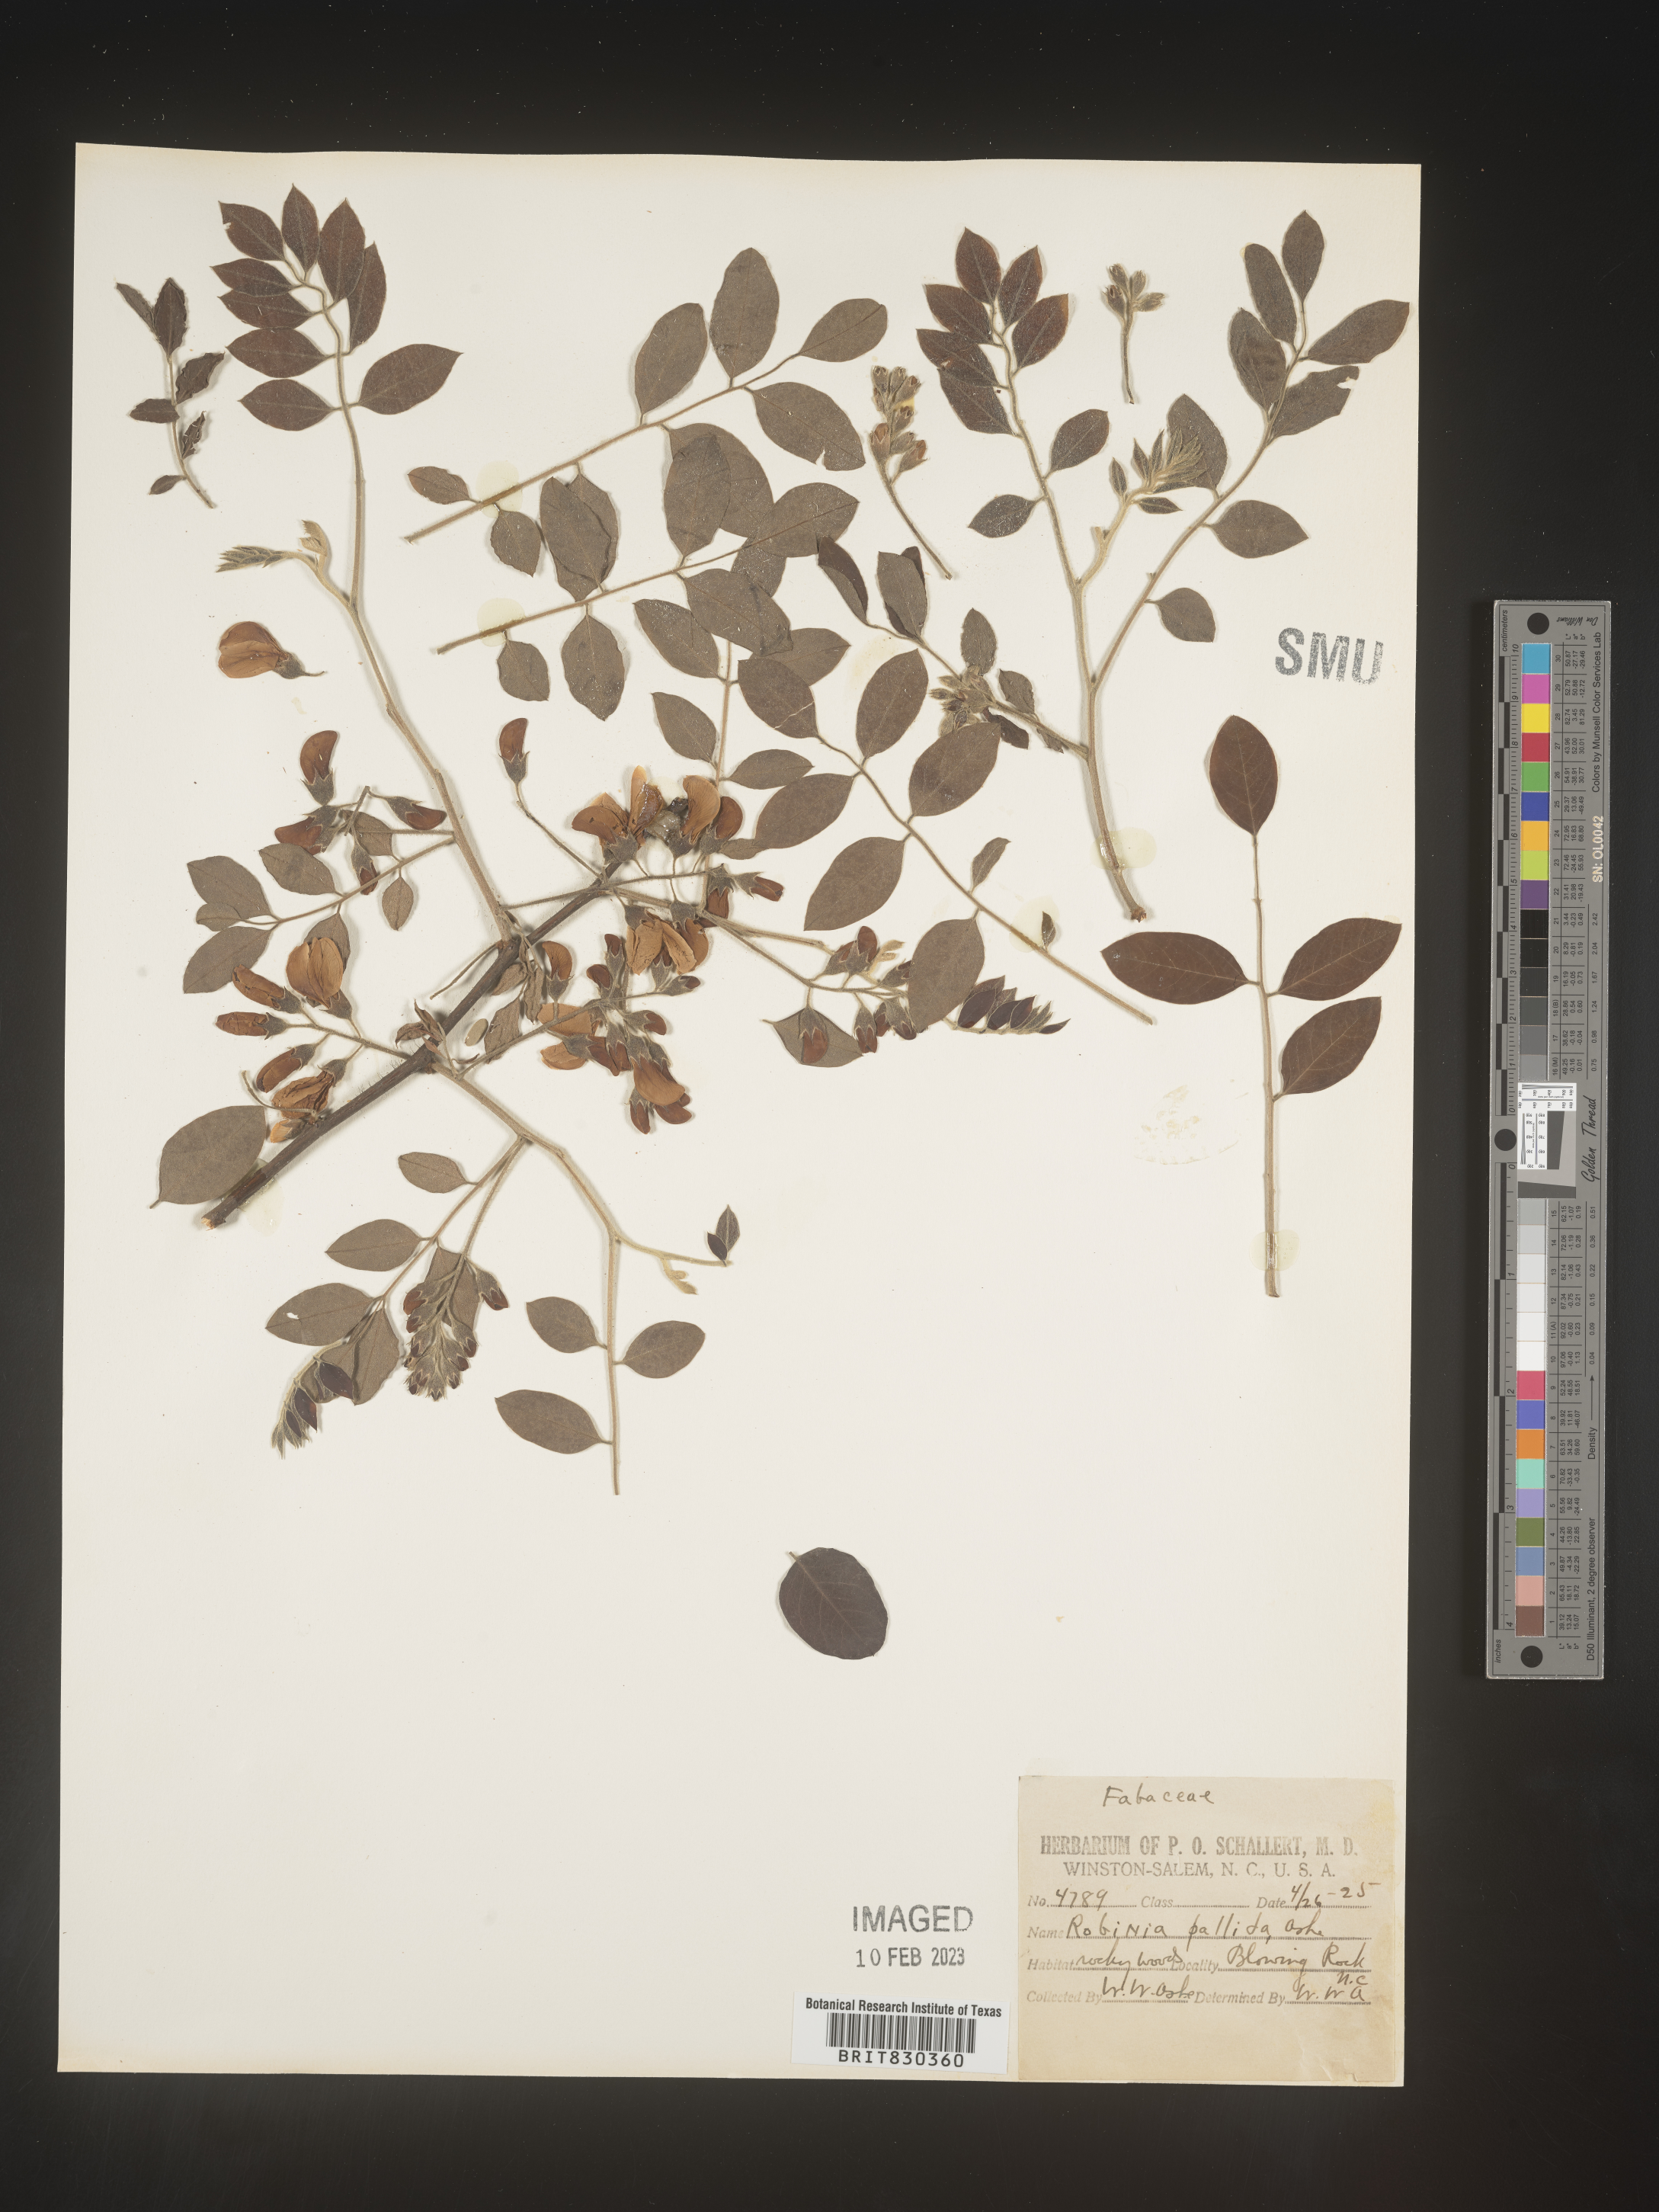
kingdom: Plantae
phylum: Tracheophyta
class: Magnoliopsida
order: Fabales
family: Fabaceae
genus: Robinia
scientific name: Robinia
